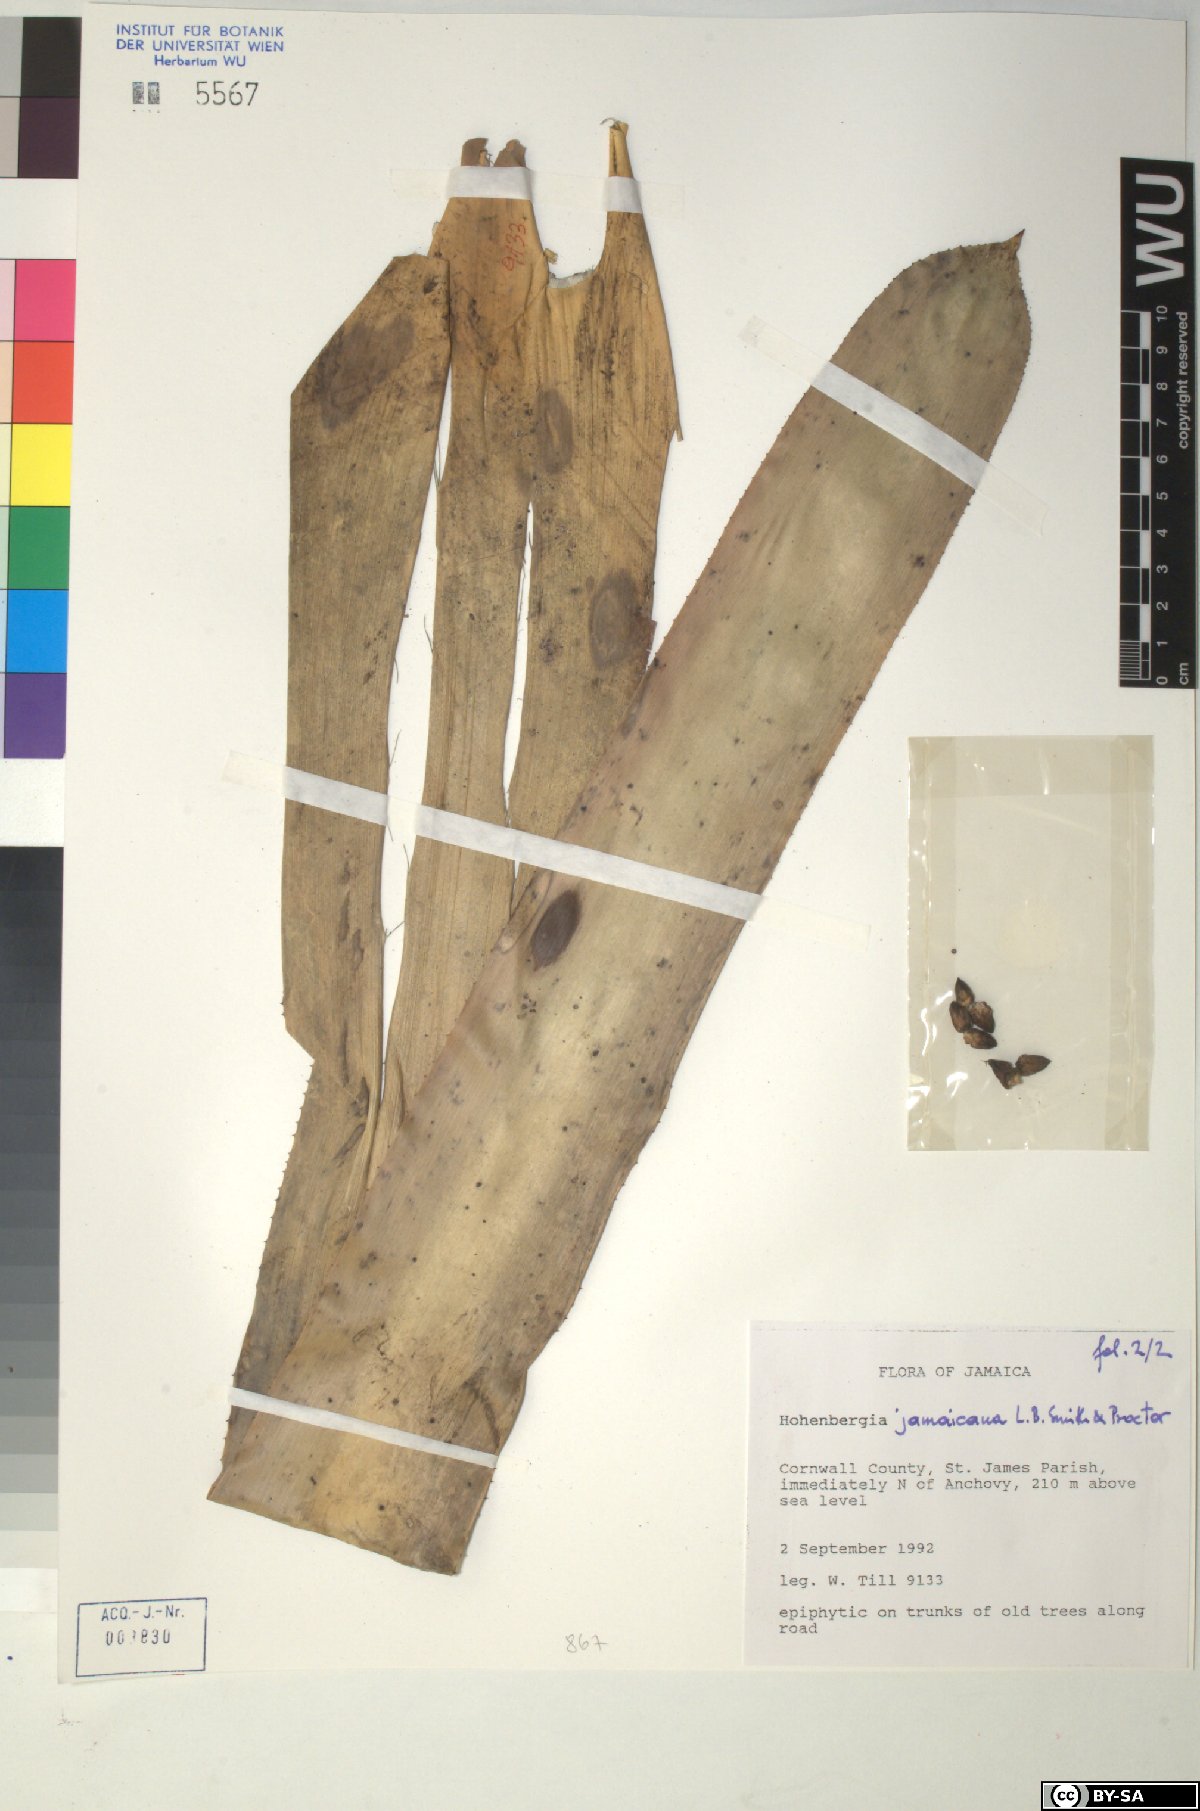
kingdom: Plantae
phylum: Tracheophyta
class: Liliopsida
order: Poales
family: Bromeliaceae
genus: Wittmackia
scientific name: Wittmackia jamaicana
